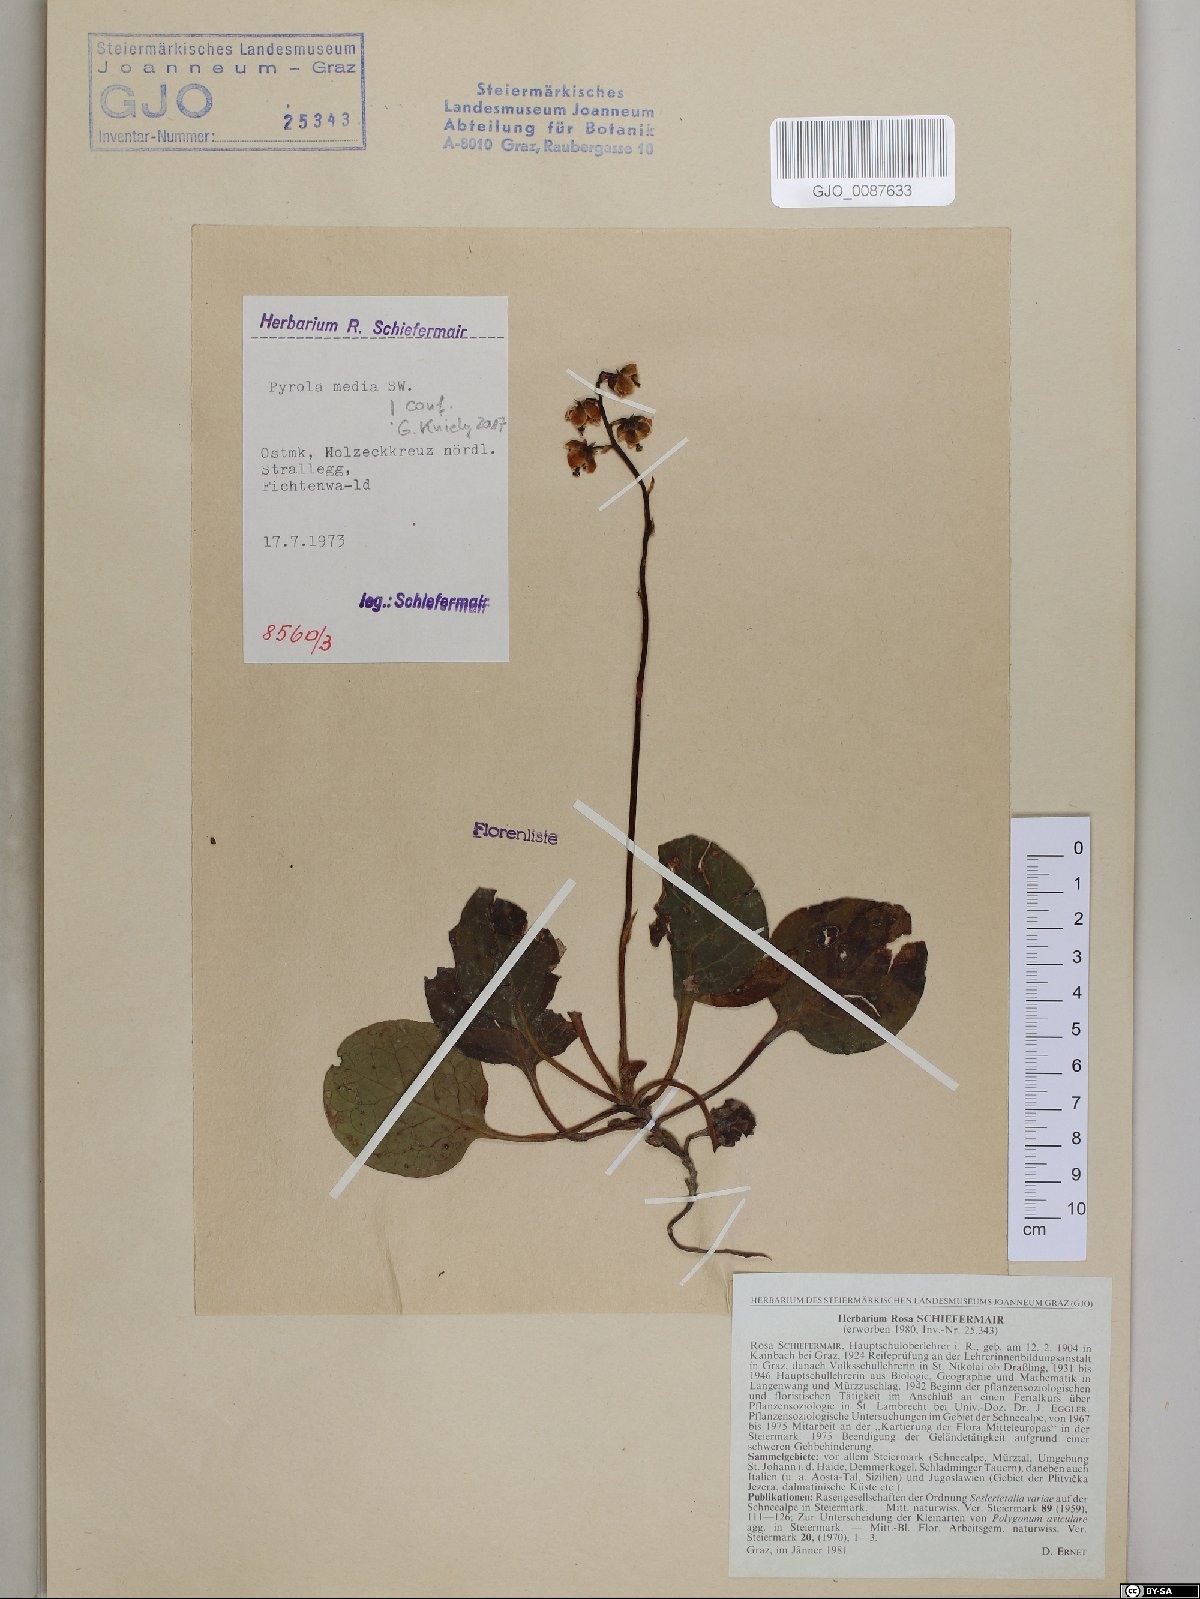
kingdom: Plantae
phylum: Tracheophyta
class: Magnoliopsida
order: Ericales
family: Ericaceae
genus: Pyrola
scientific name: Pyrola media
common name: Intermediate wintergreen
